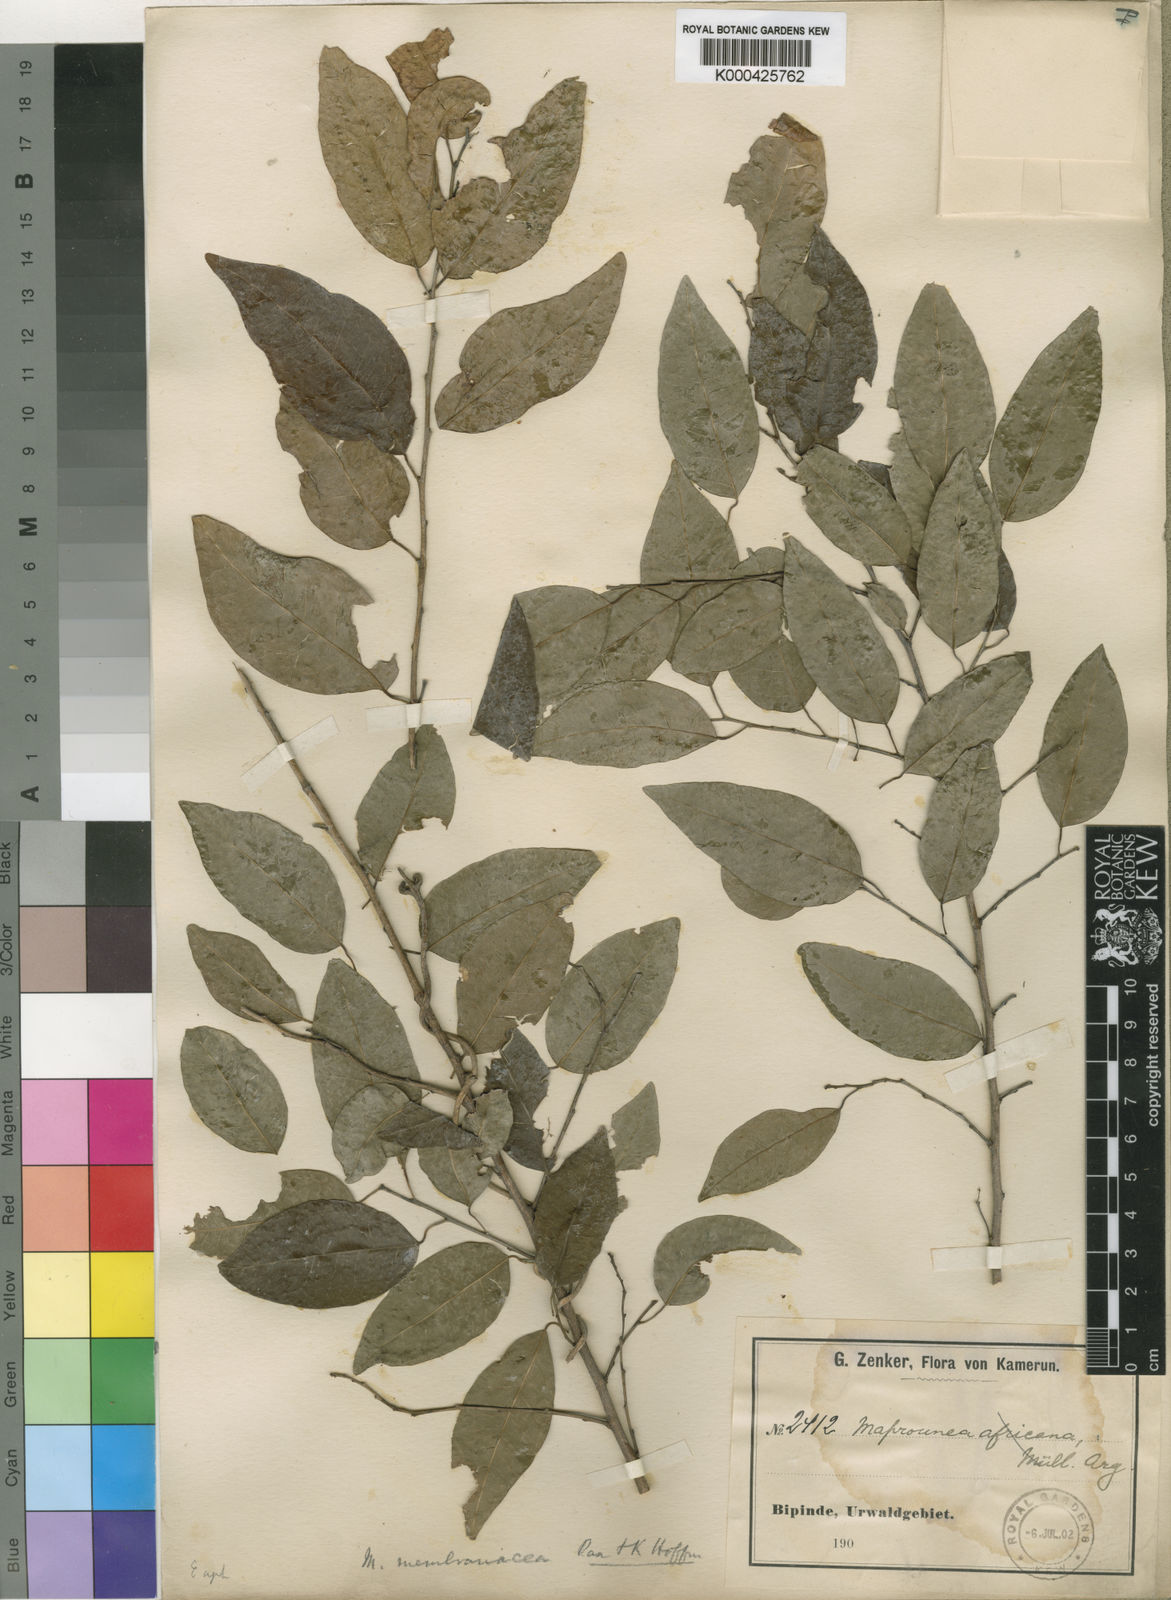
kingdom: Plantae
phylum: Tracheophyta
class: Magnoliopsida
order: Malpighiales
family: Euphorbiaceae
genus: Maprounea
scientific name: Maprounea membranacea
